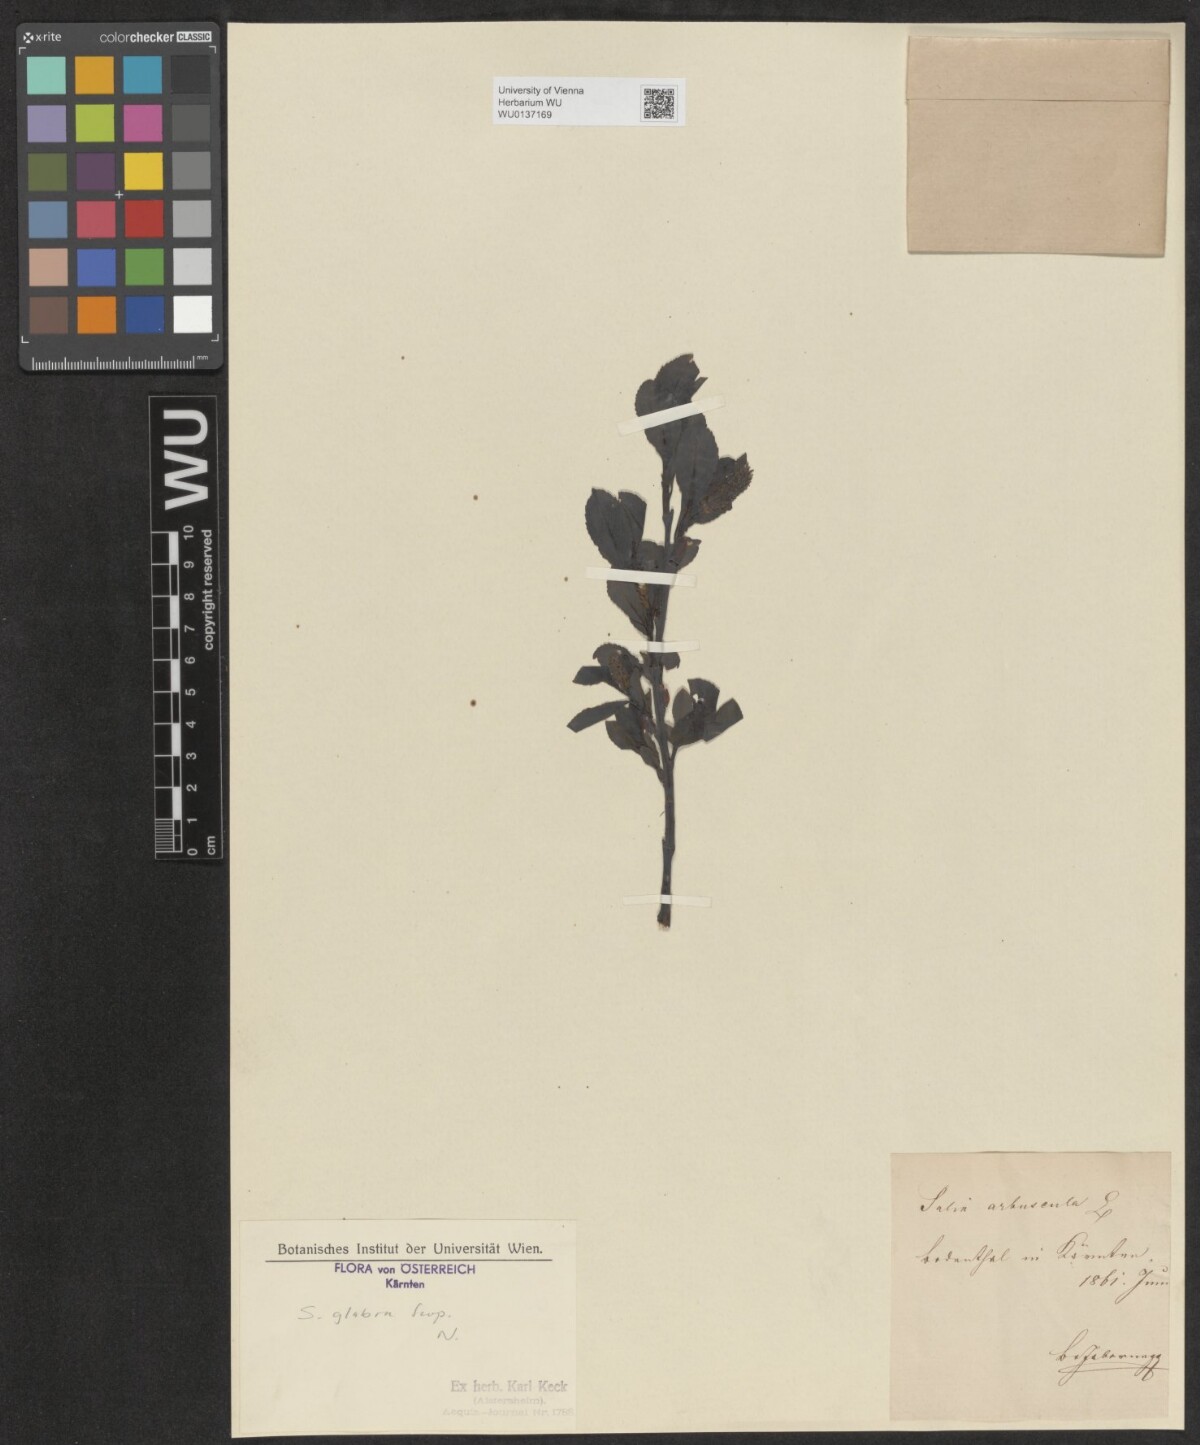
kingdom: Plantae
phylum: Tracheophyta
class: Magnoliopsida
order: Malpighiales
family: Salicaceae
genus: Salix
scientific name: Salix glabra
